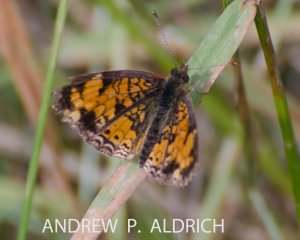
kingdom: Animalia
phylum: Arthropoda
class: Insecta
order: Lepidoptera
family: Nymphalidae
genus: Phyciodes
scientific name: Phyciodes tharos
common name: Pearl Crescent
